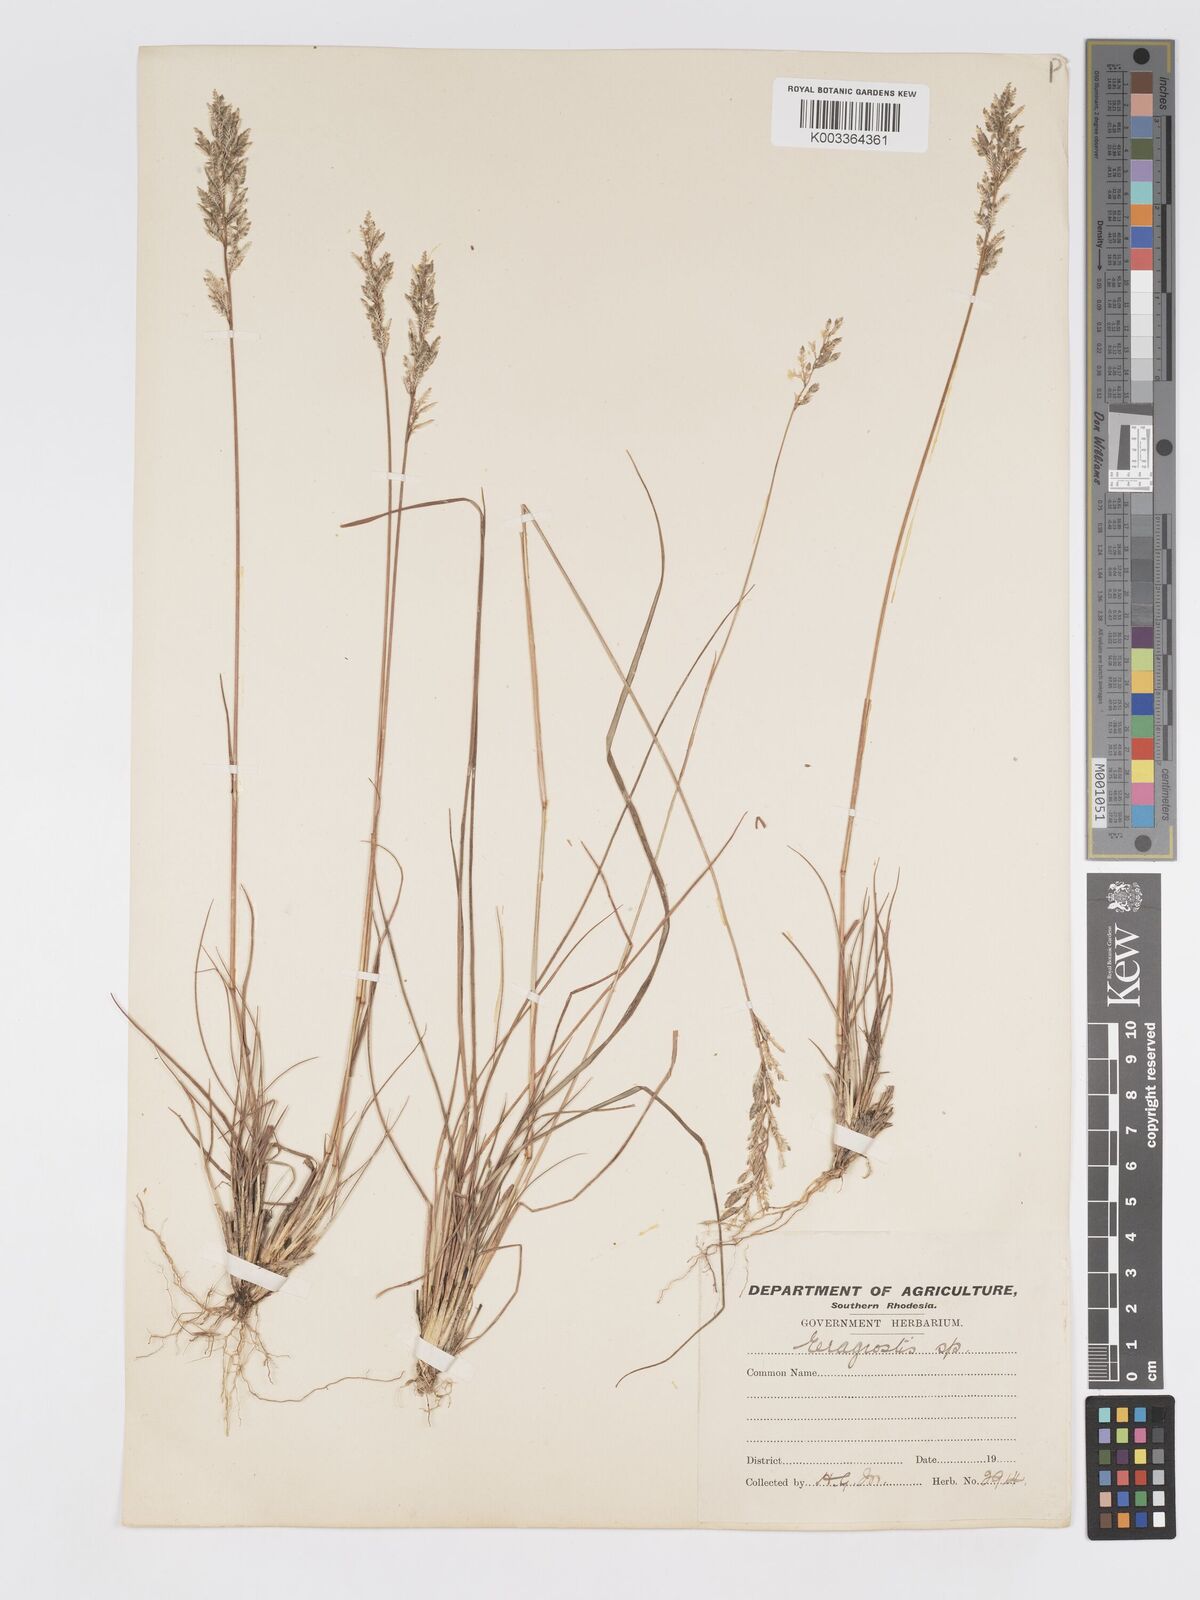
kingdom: Plantae
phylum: Tracheophyta
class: Liliopsida
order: Poales
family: Poaceae
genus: Eragrostis
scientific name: Eragrostis racemosa
